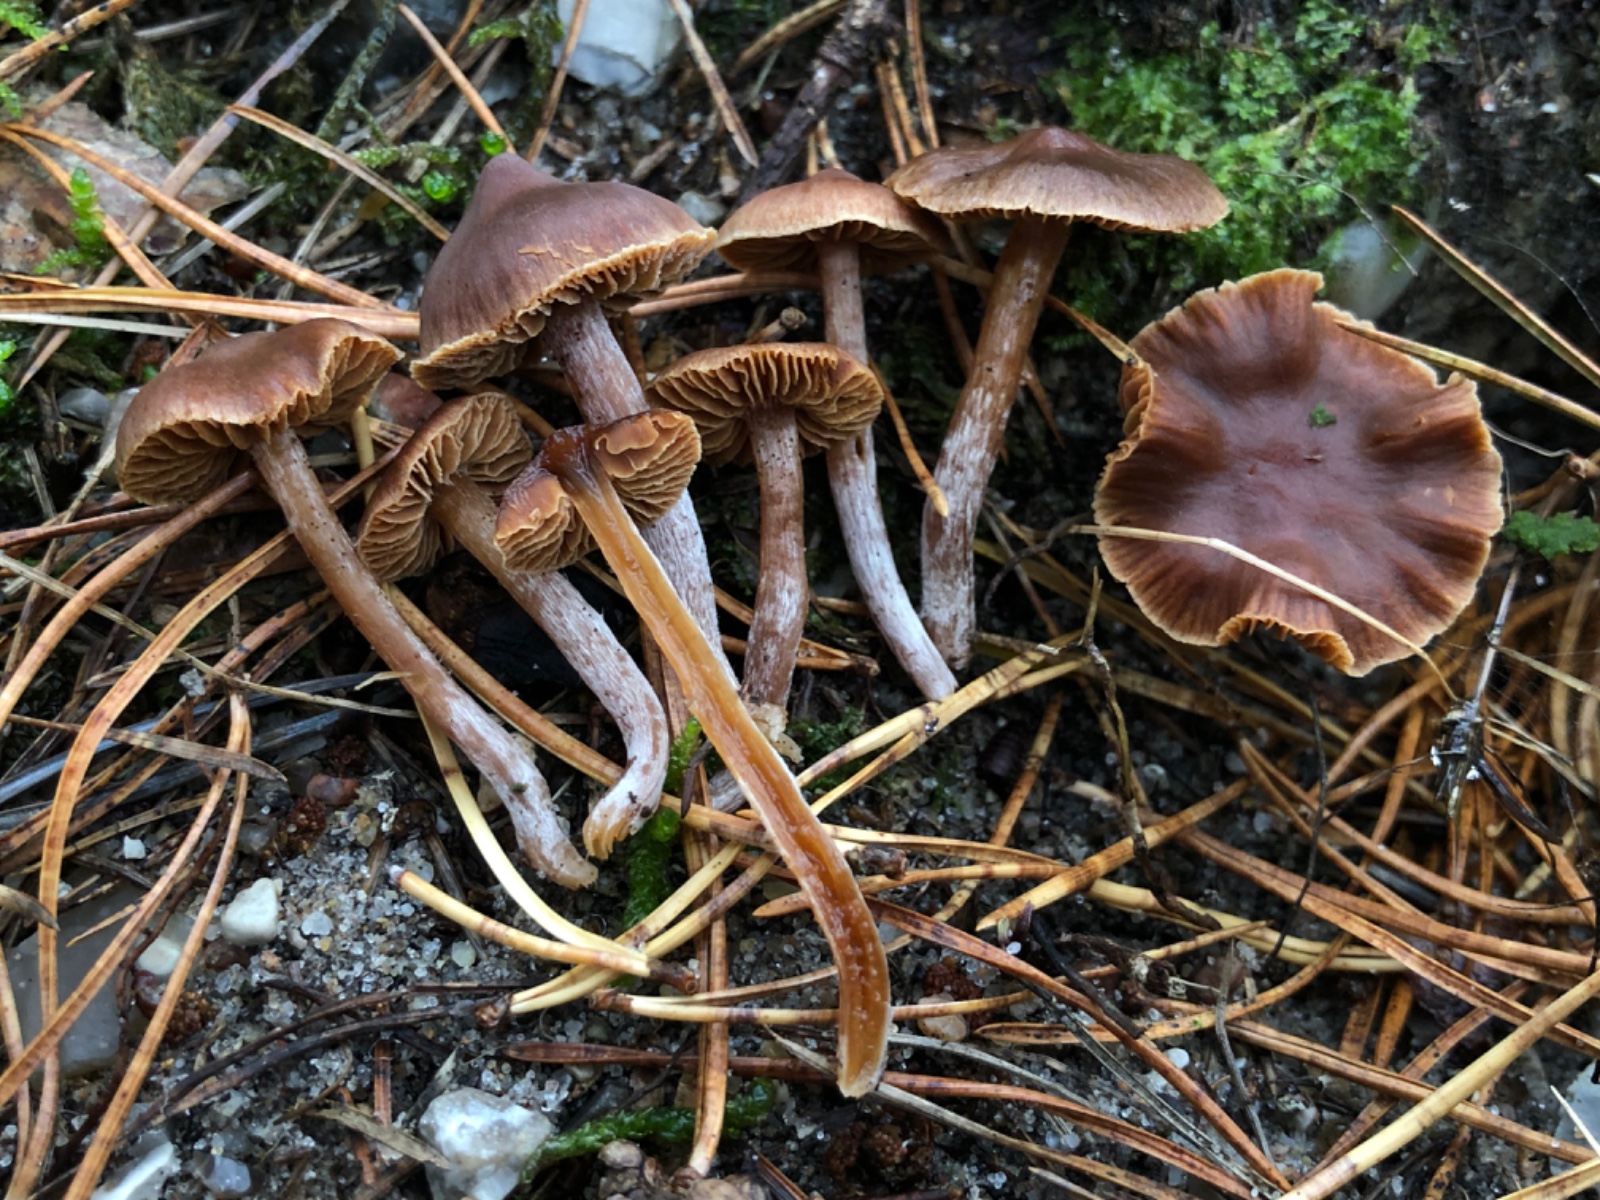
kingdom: Fungi
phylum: Basidiomycota
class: Agaricomycetes
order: Agaricales
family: Cortinariaceae
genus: Cortinarius
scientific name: Cortinarius sutherlandensis
